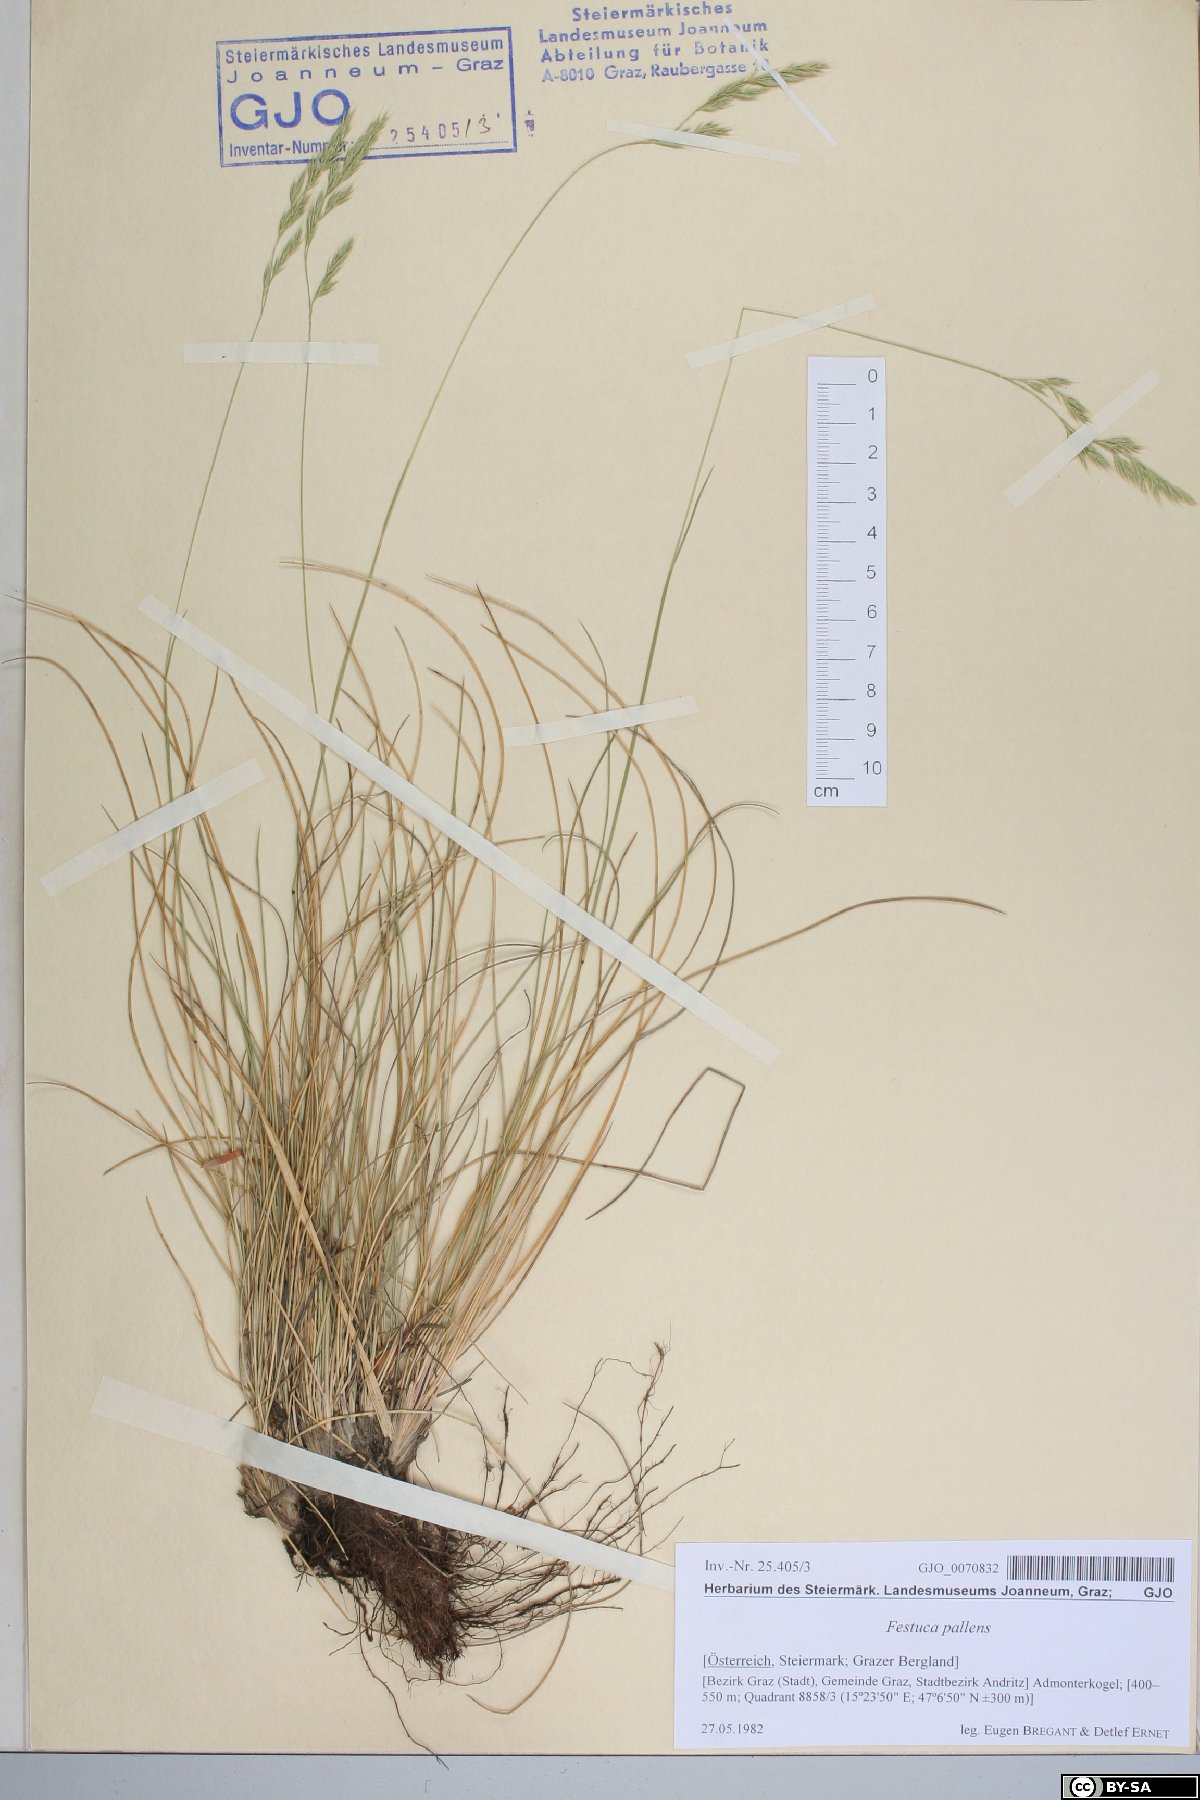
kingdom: Plantae
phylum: Tracheophyta
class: Liliopsida
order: Poales
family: Poaceae
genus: Festuca
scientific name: Festuca pallens
